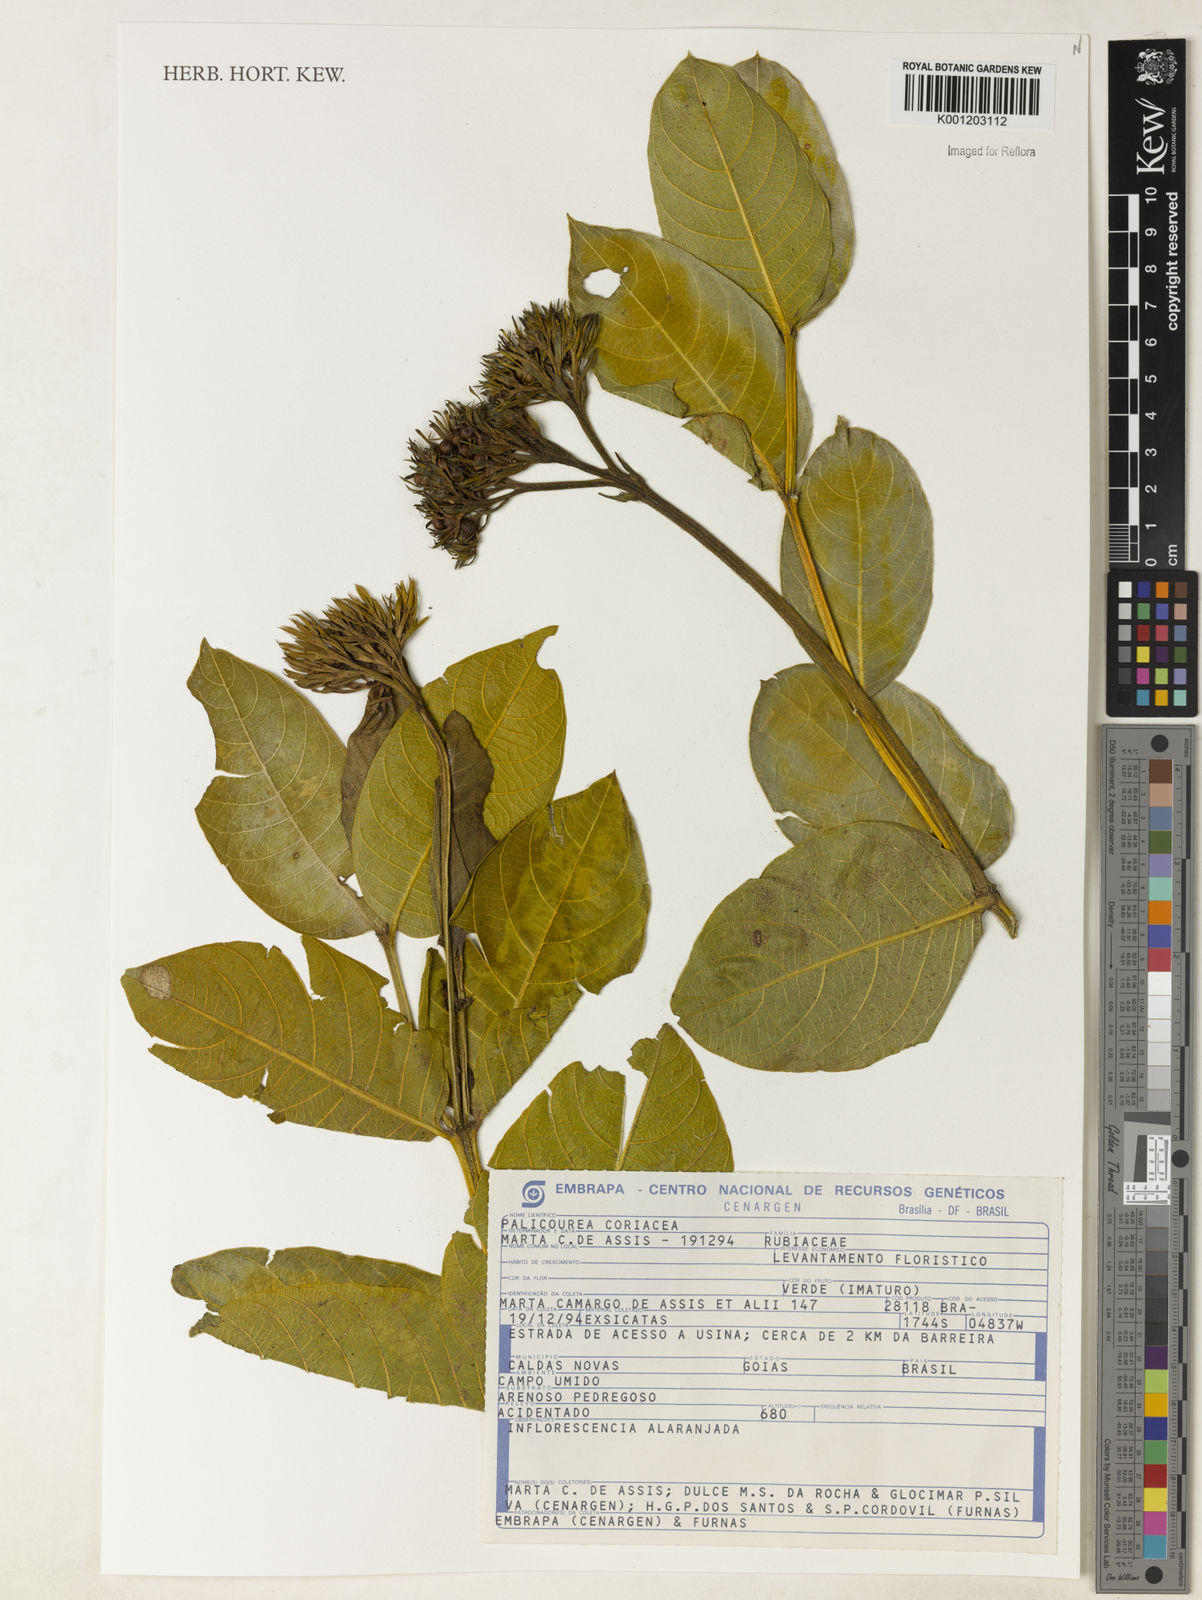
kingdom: Plantae
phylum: Tracheophyta
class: Magnoliopsida
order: Gentianales
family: Rubiaceae
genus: Palicourea
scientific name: Palicourea coriacea
